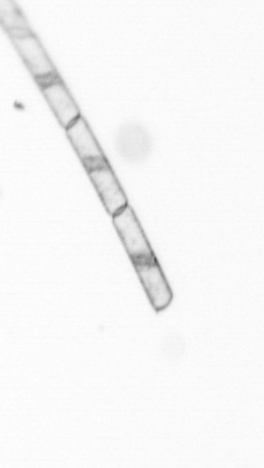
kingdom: Chromista
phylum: Ochrophyta
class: Bacillariophyceae
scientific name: Bacillariophyceae
